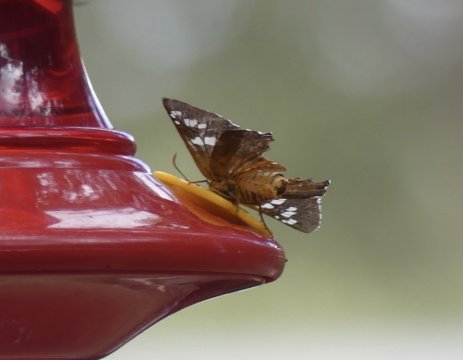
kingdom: Animalia
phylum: Arthropoda
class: Insecta
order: Lepidoptera
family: Hesperiidae
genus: Pyrrhopyge
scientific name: Pyrrhopyge araxes
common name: Dull Firetip
